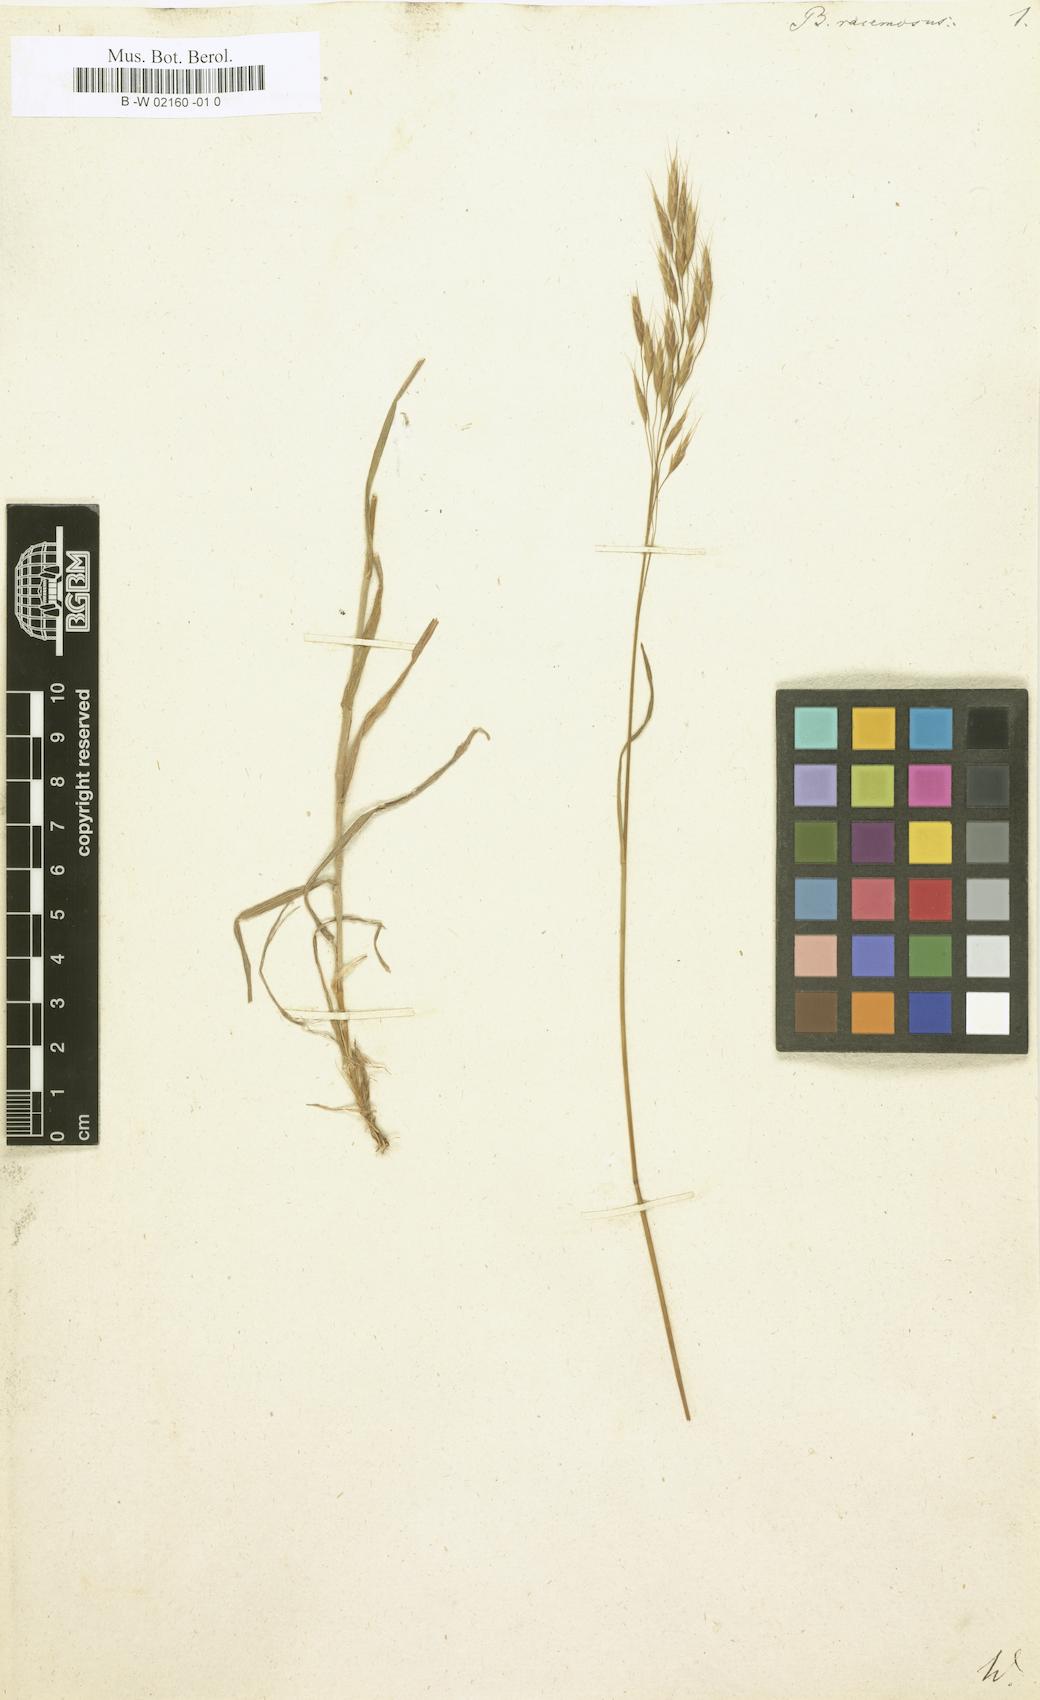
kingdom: Plantae
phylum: Tracheophyta
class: Liliopsida
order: Poales
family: Poaceae
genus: Bromus
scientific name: Bromus racemosus
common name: Bald brome
